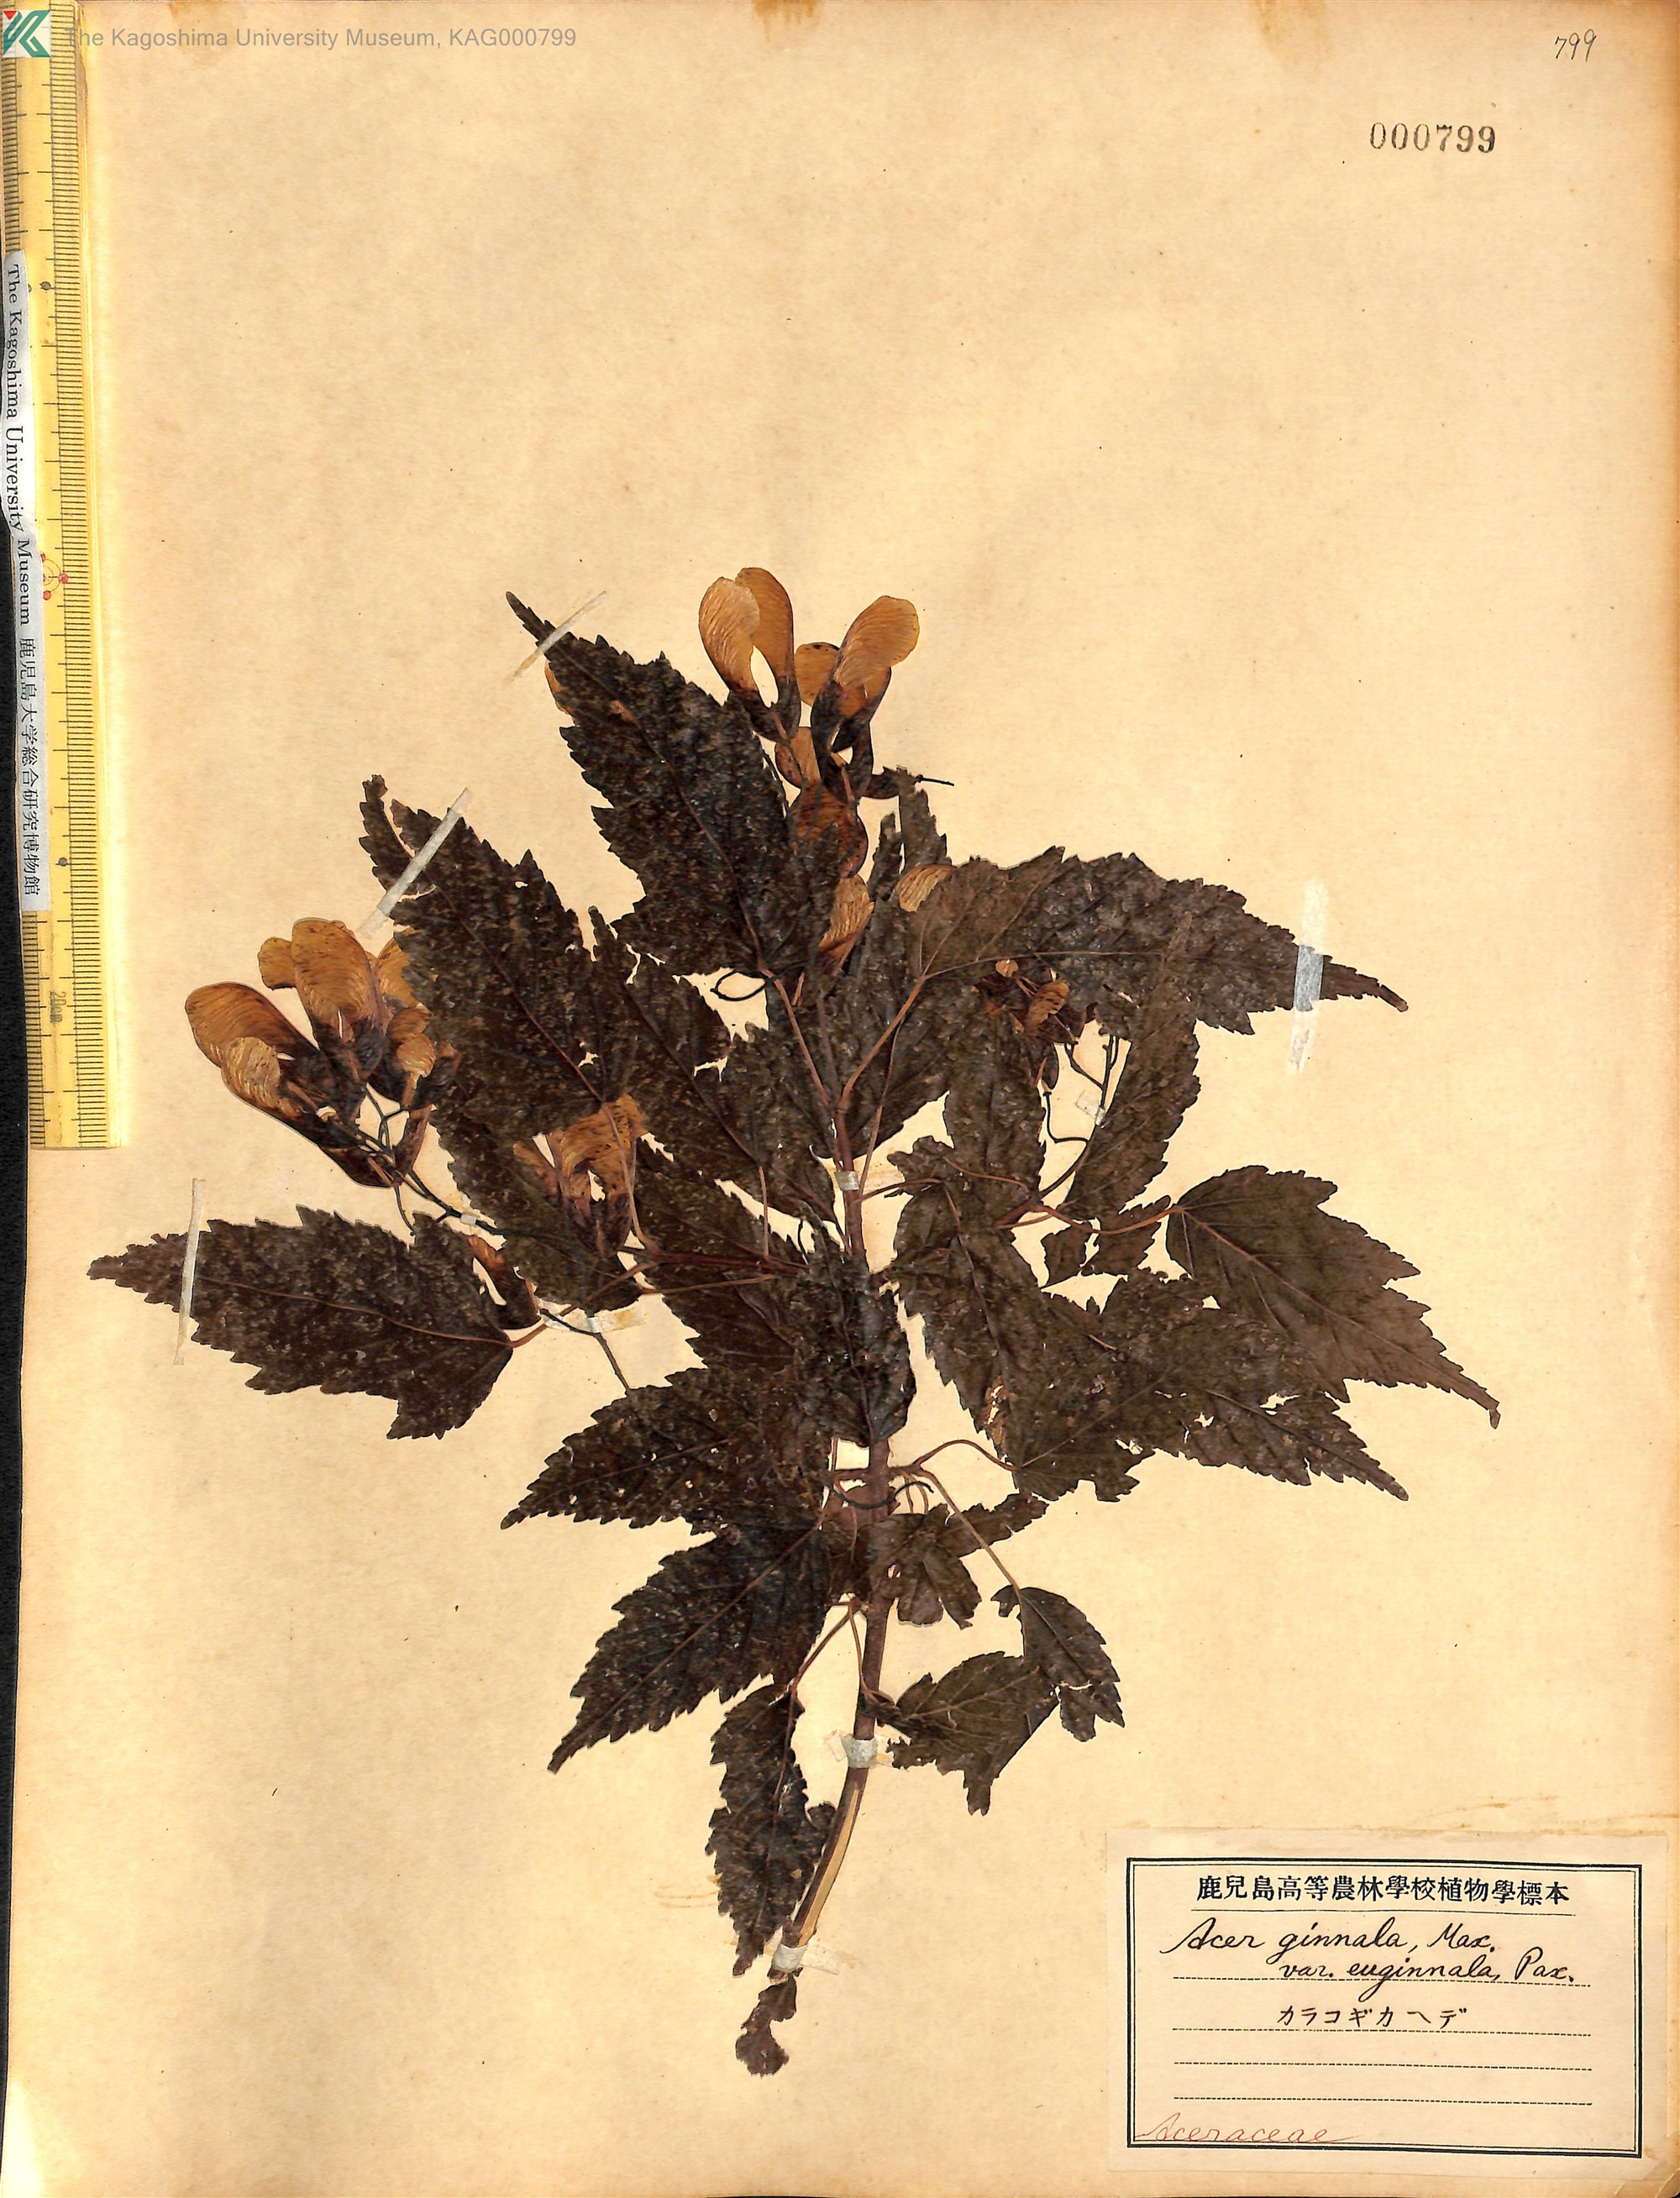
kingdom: Plantae
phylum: Tracheophyta
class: Magnoliopsida
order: Sapindales
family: Sapindaceae
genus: Acer
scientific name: Acer tataricum
